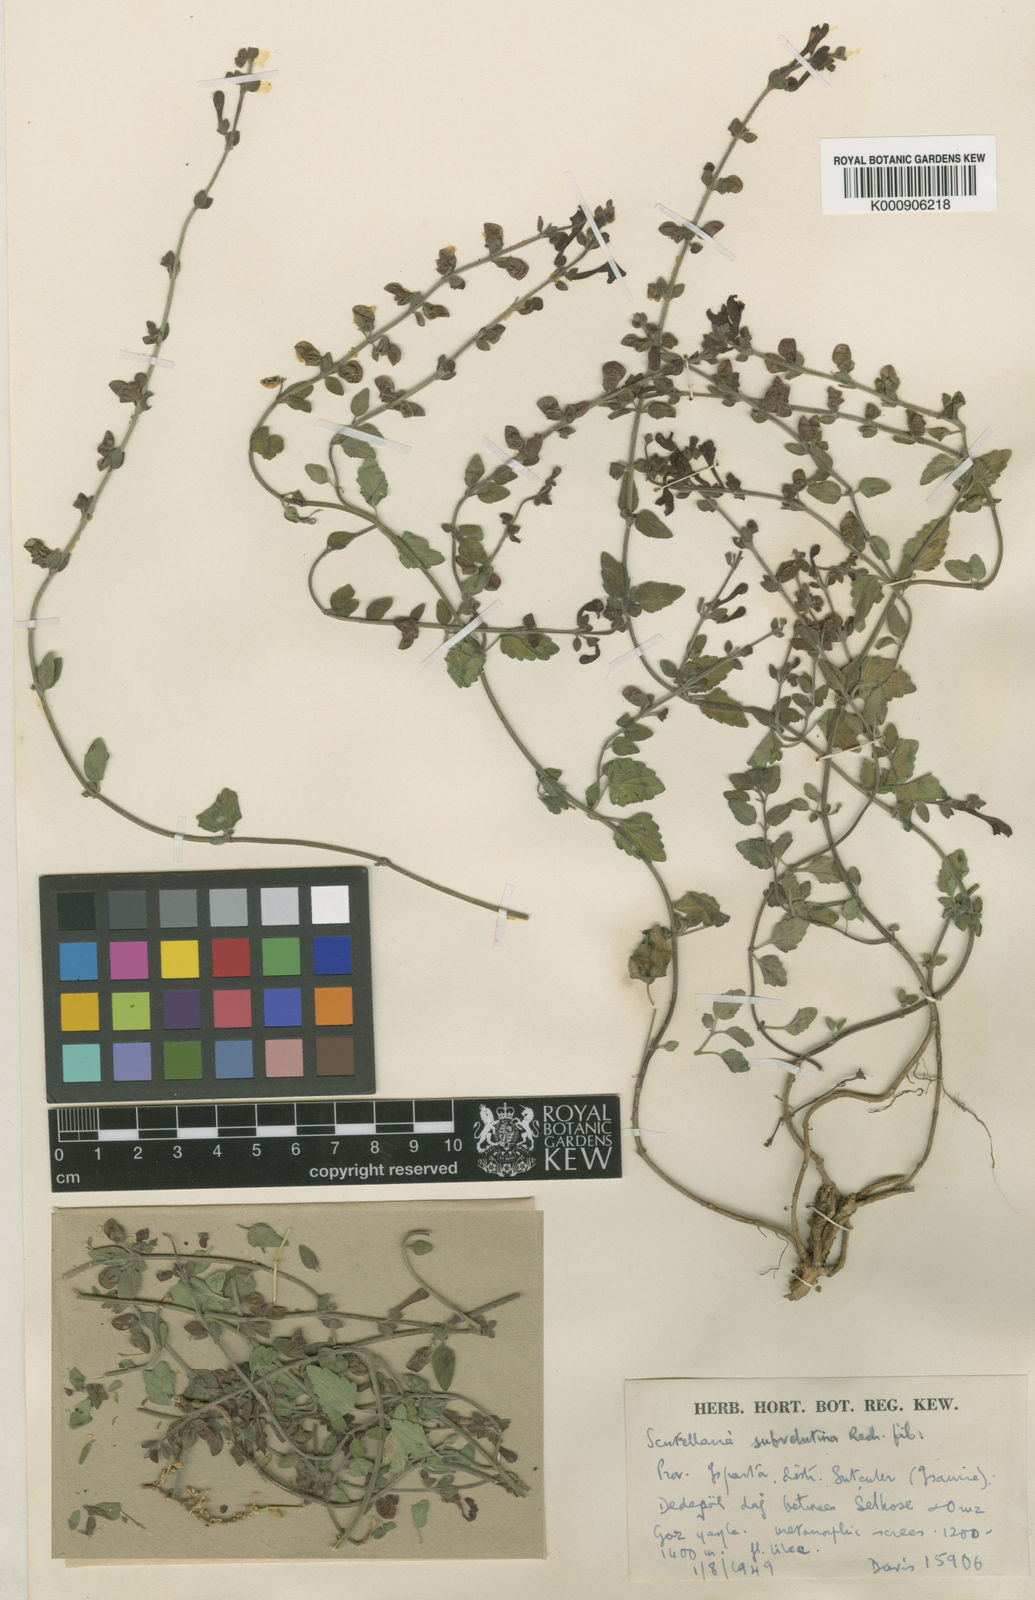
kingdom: Plantae
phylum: Tracheophyta
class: Magnoliopsida
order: Lamiales
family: Lamiaceae
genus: Scutellaria
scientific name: Scutellaria columnae
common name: Large skullcap
